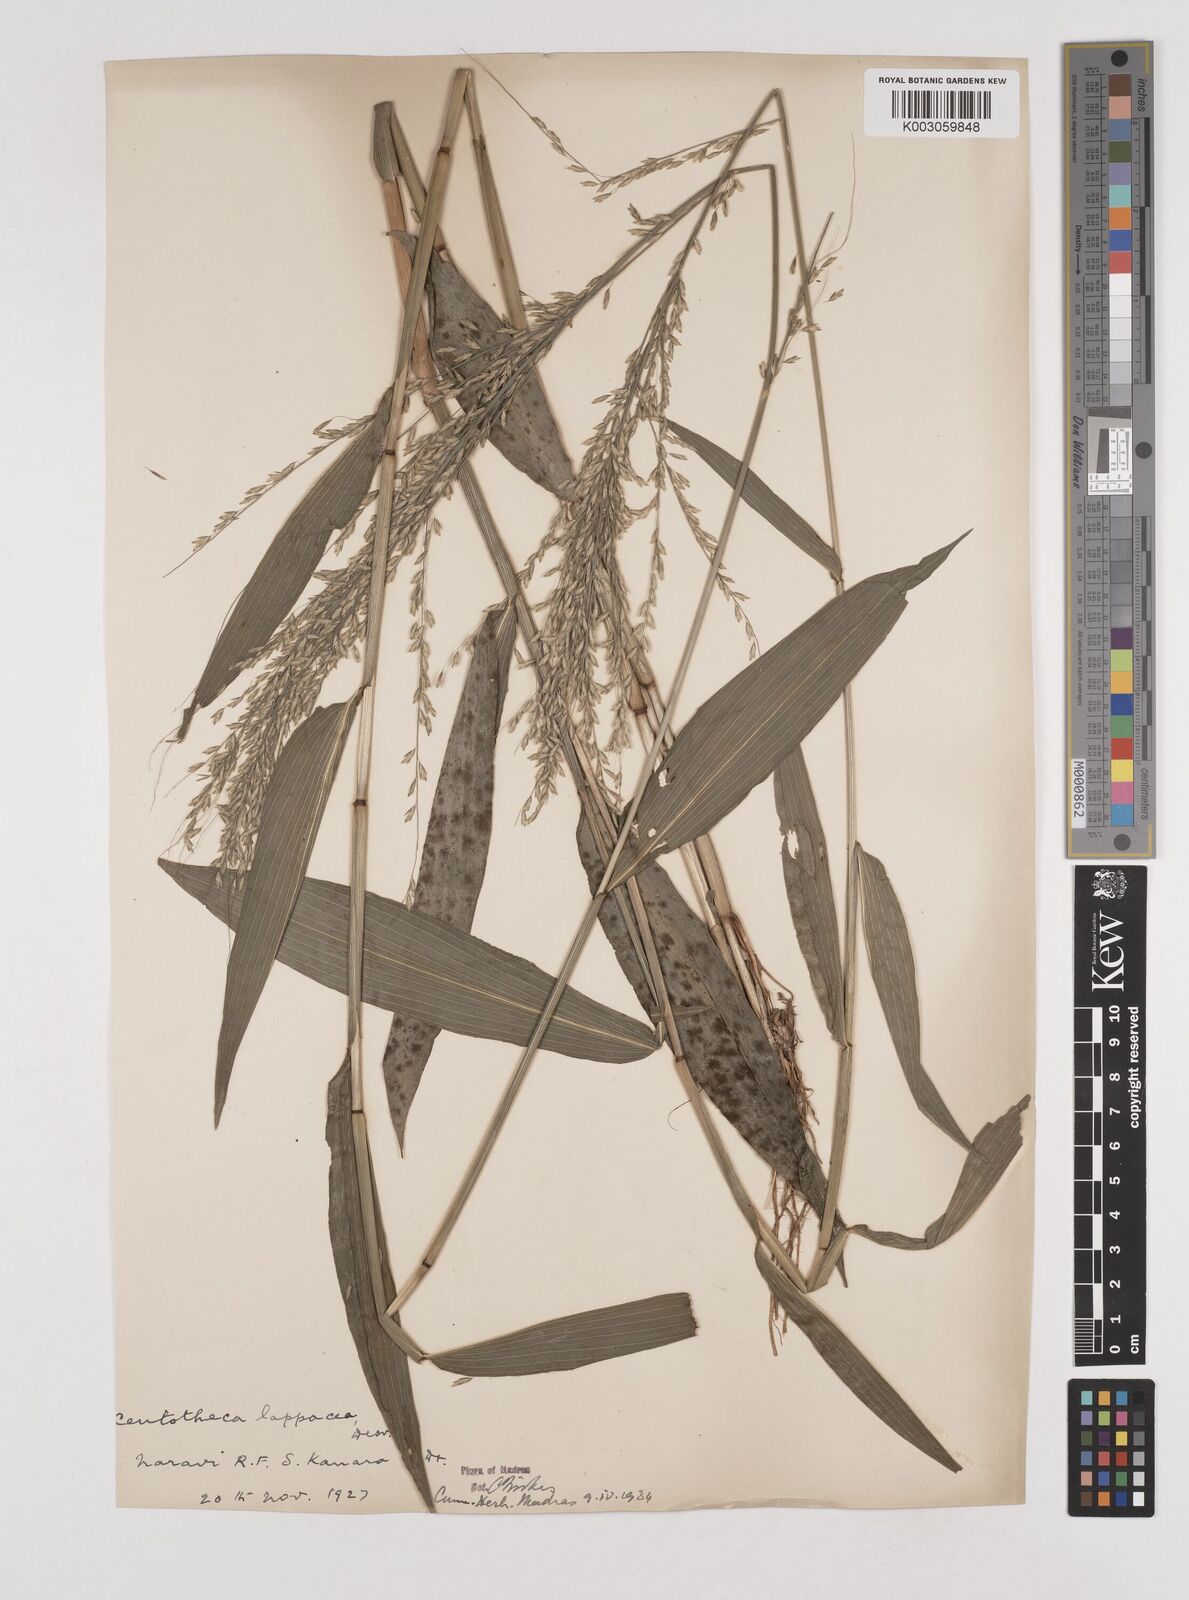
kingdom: Plantae
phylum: Tracheophyta
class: Liliopsida
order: Poales
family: Poaceae
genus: Centotheca
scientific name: Centotheca lappacea
